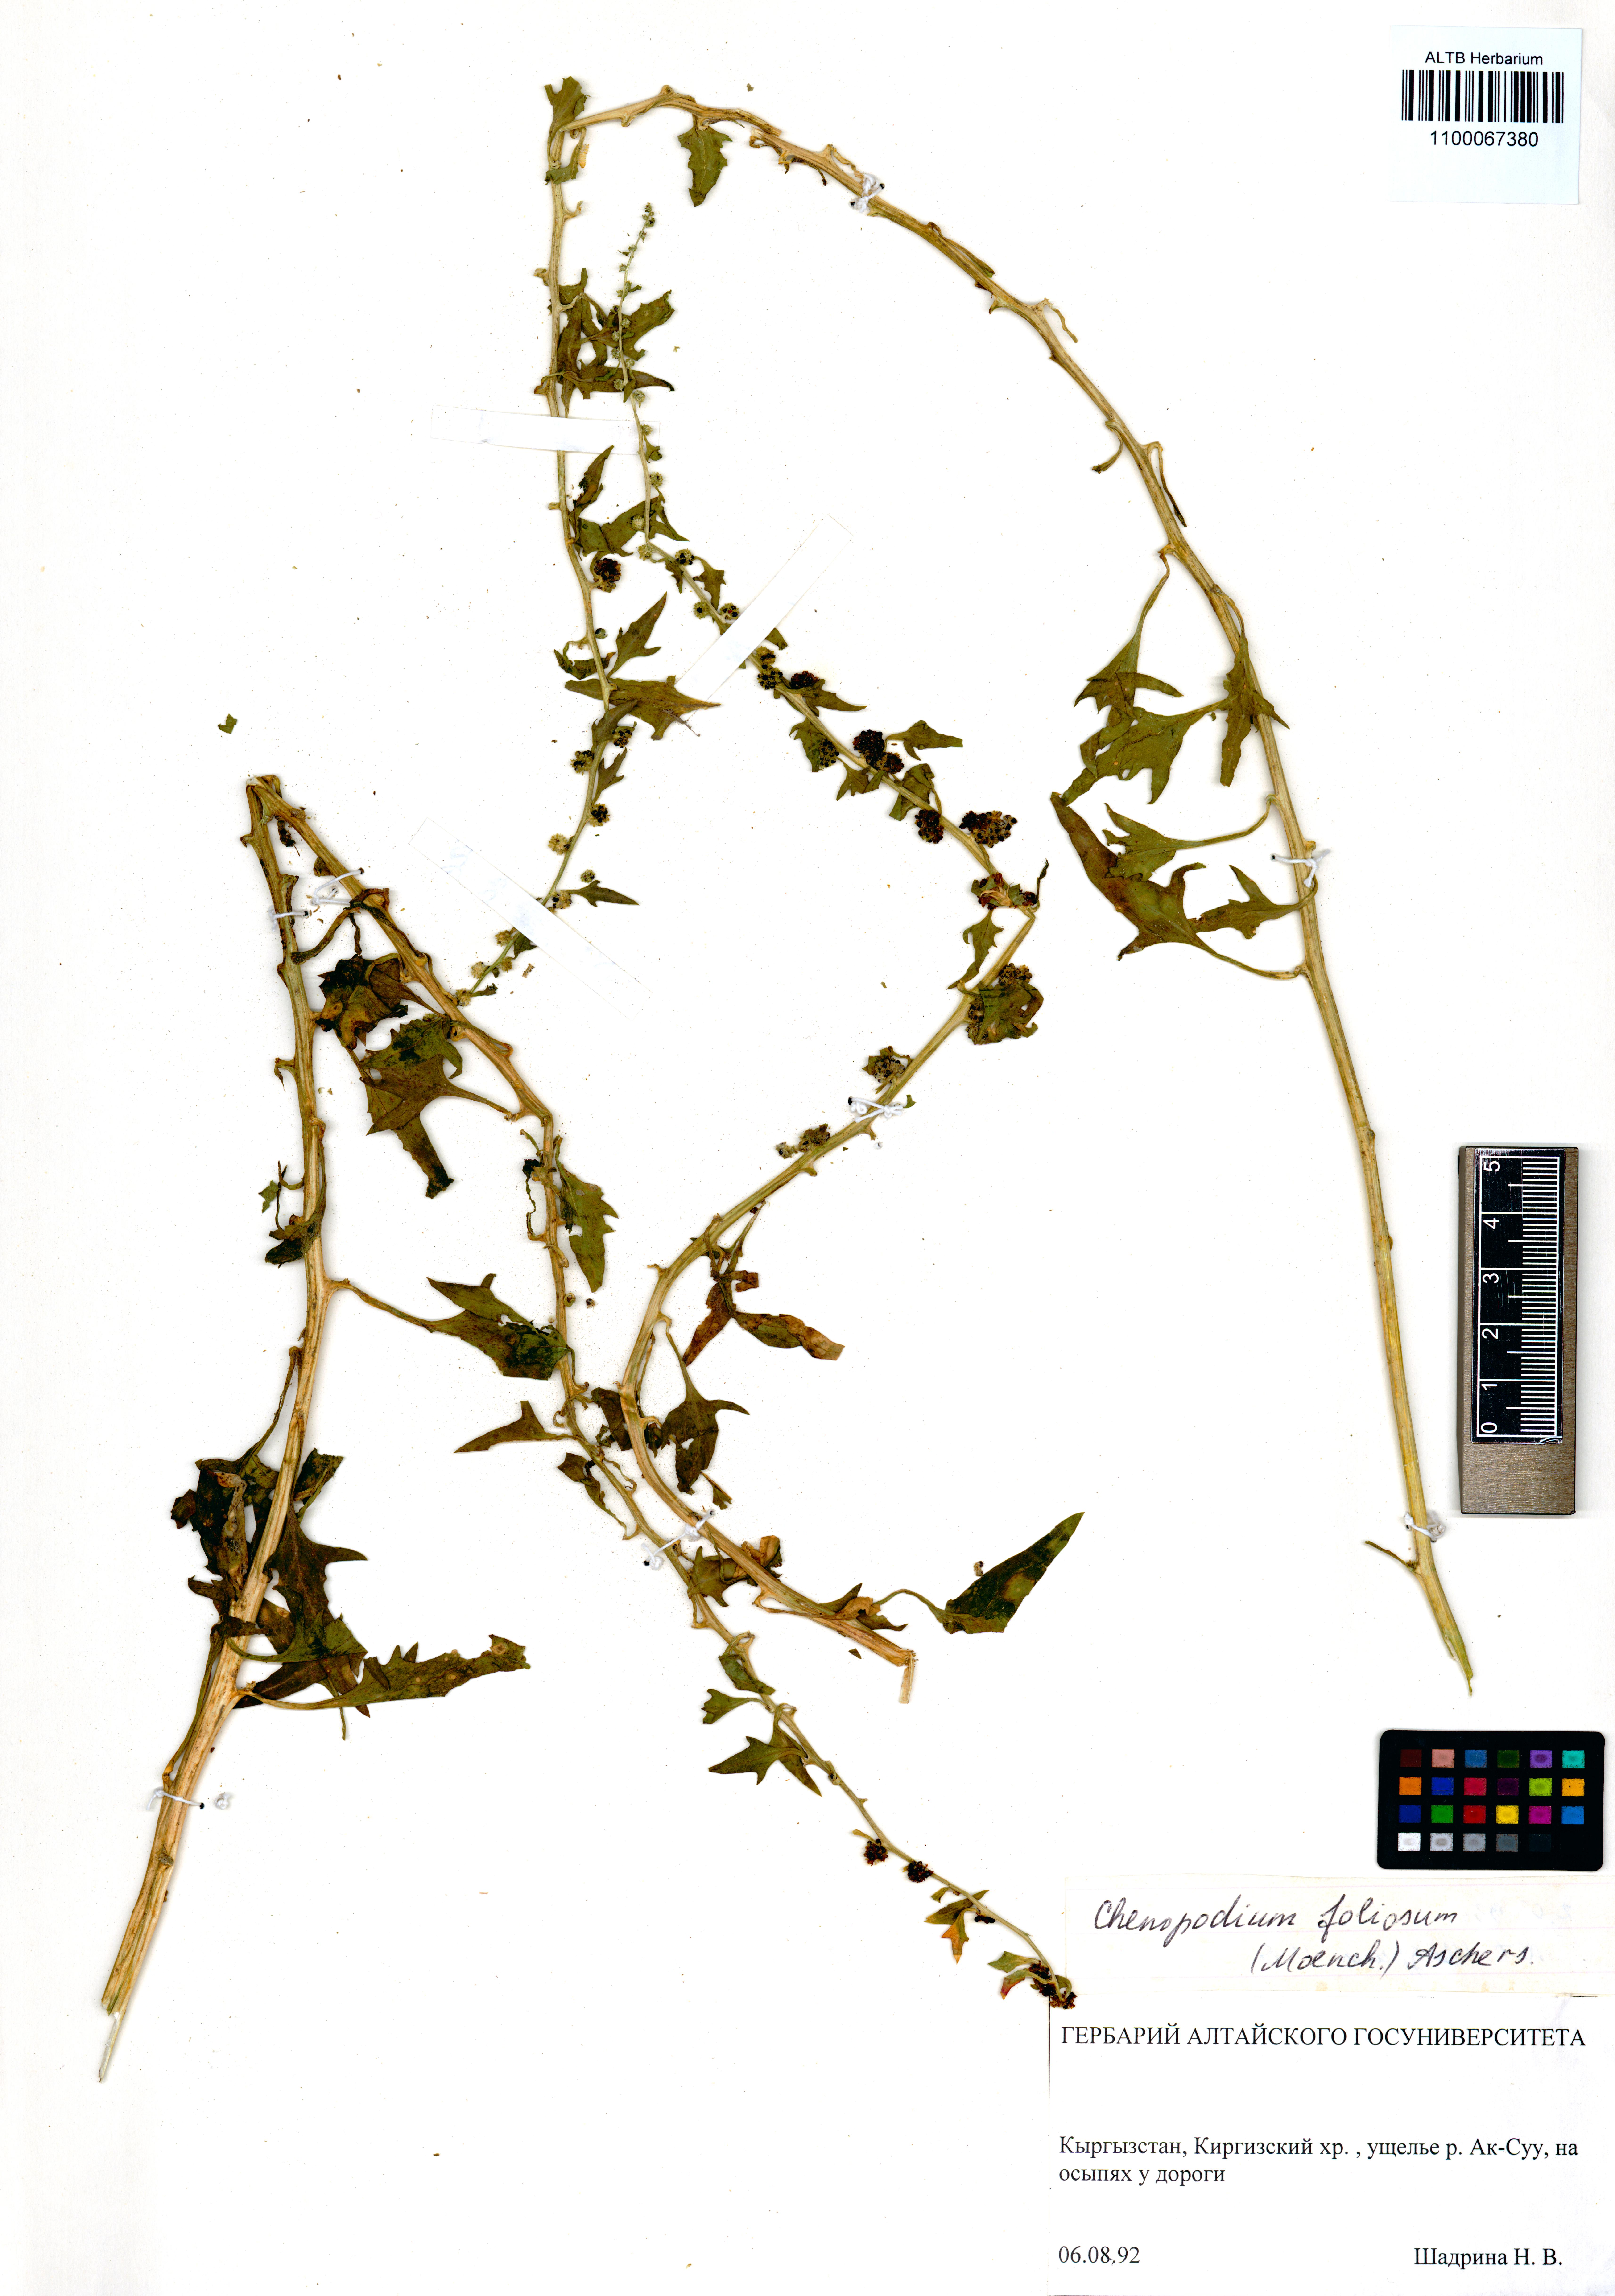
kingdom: Plantae
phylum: Tracheophyta
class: Magnoliopsida
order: Caryophyllales
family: Amaranthaceae
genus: Blitum
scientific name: Blitum virgatum
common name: Strawberry goosefoot
